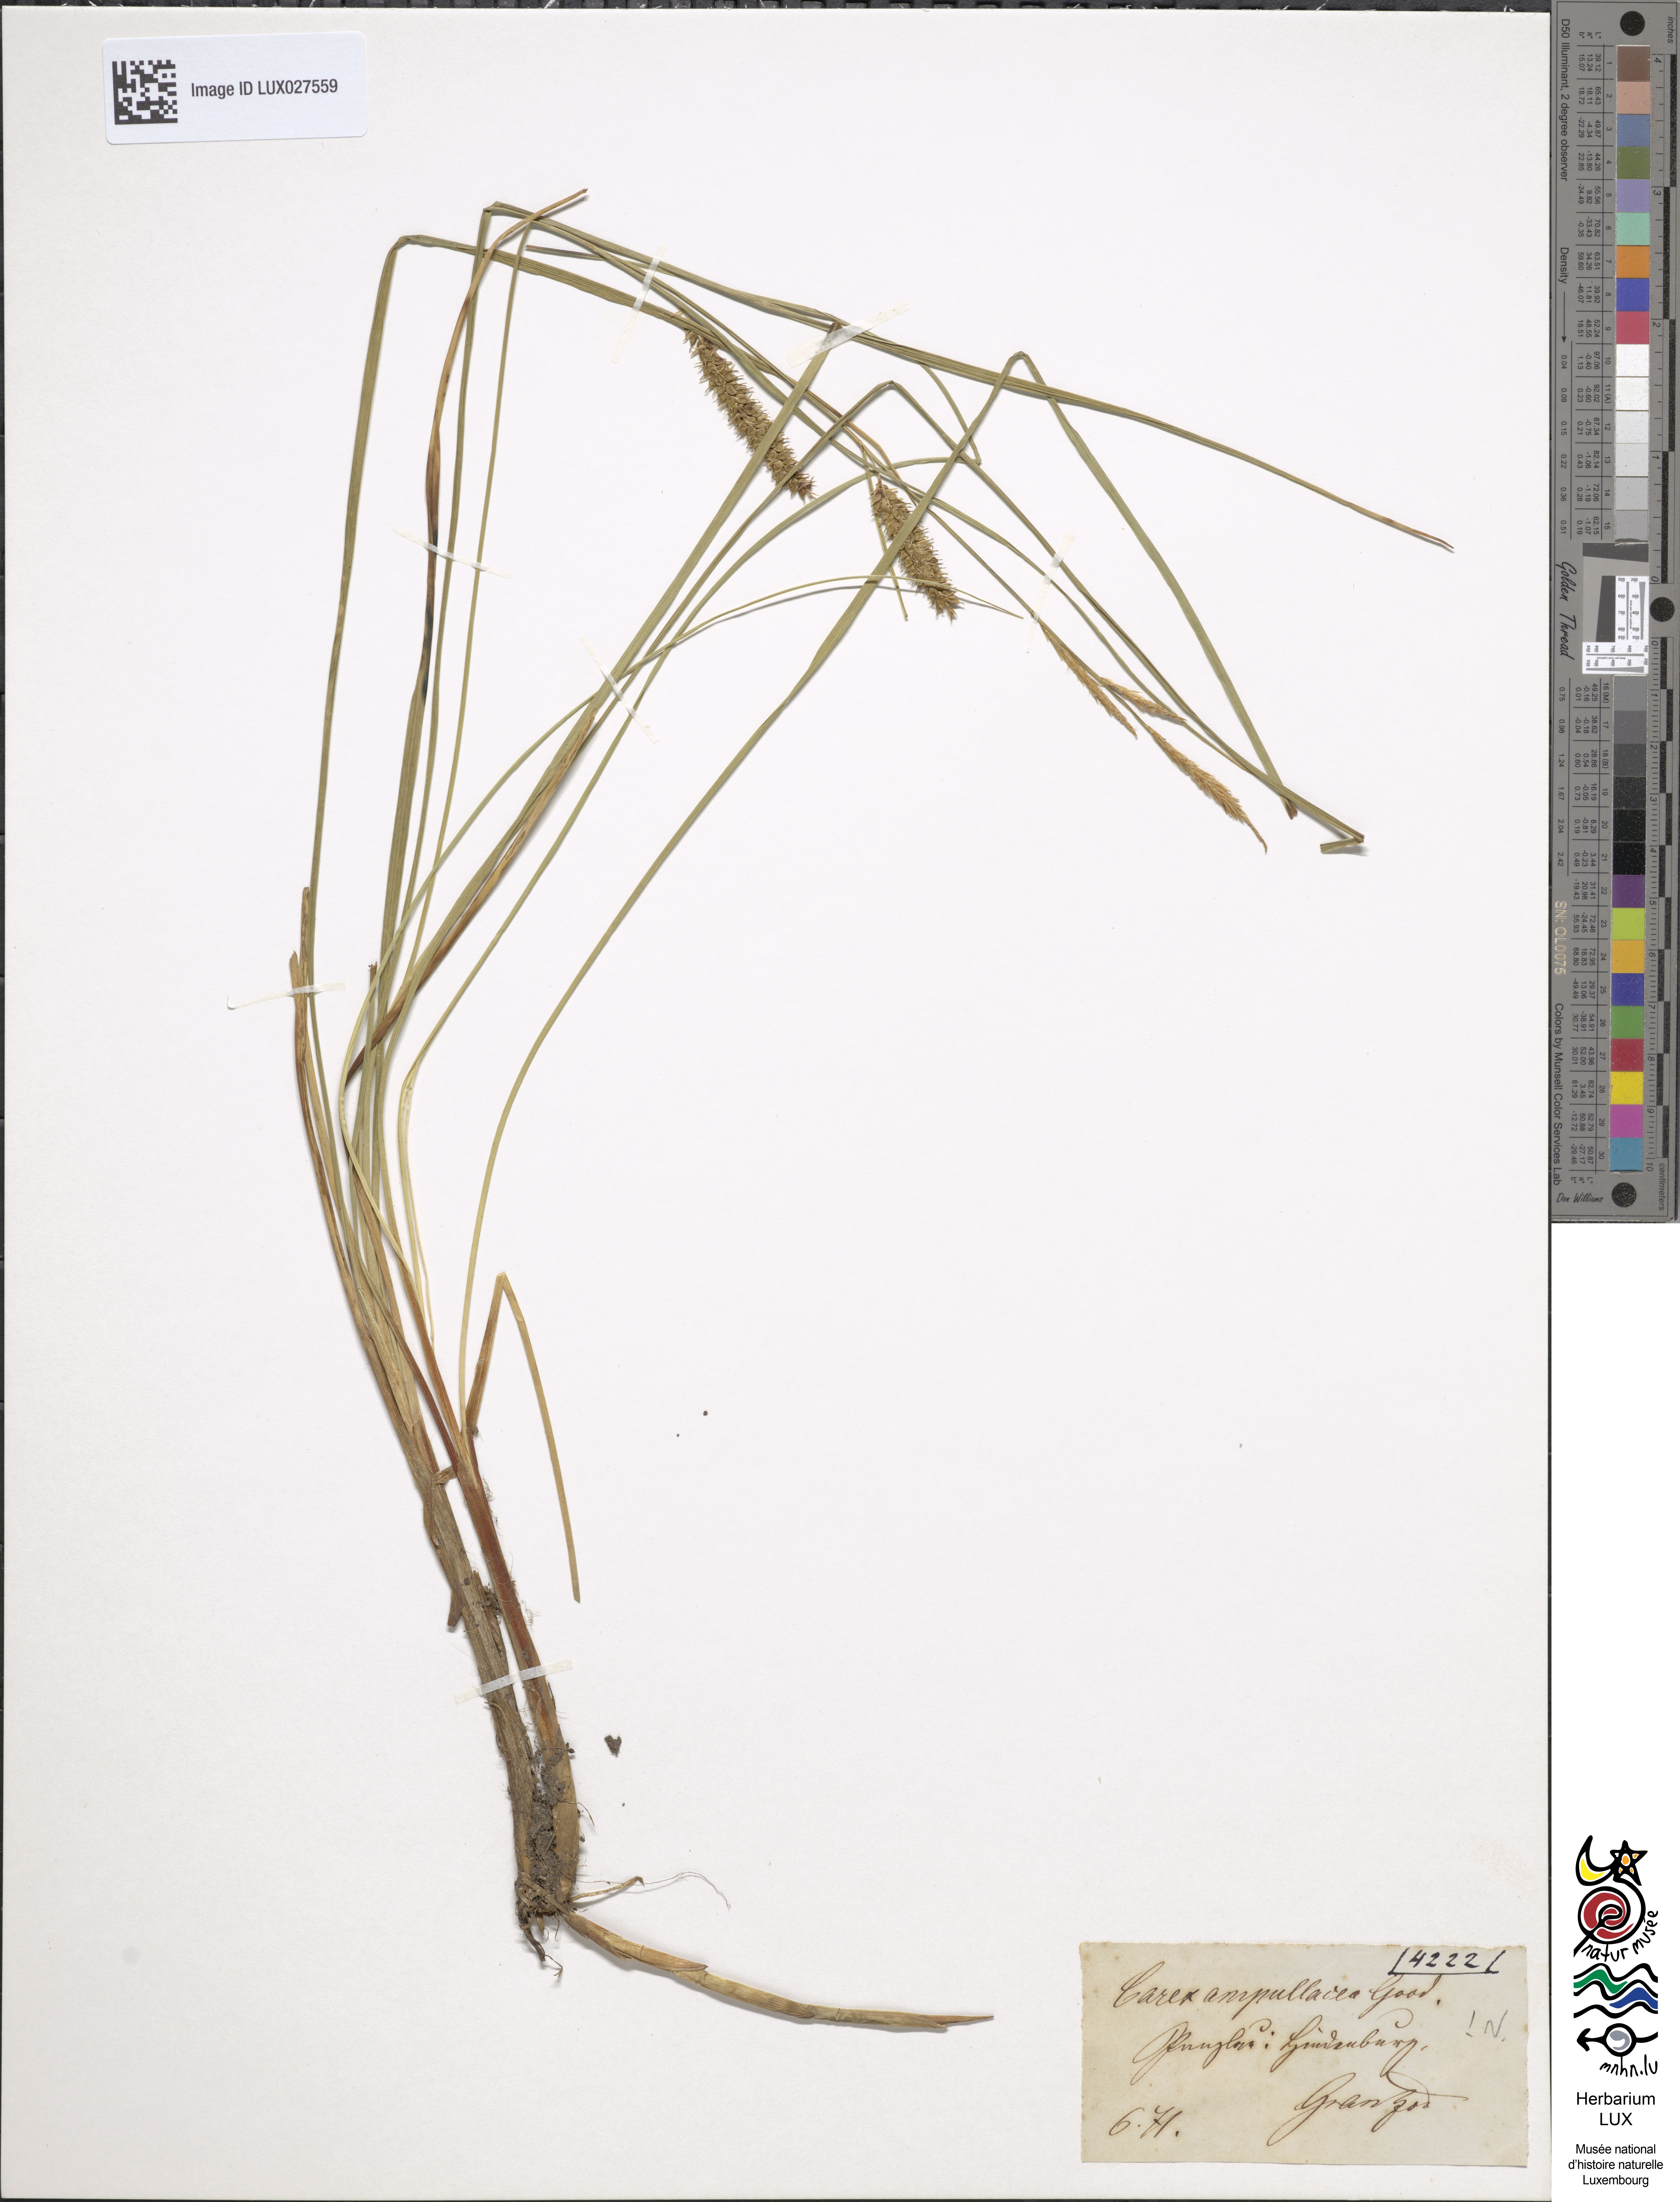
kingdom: Plantae
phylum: Tracheophyta
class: Liliopsida
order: Poales
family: Cyperaceae
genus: Carex
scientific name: Carex rostrata
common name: Bottle sedge
